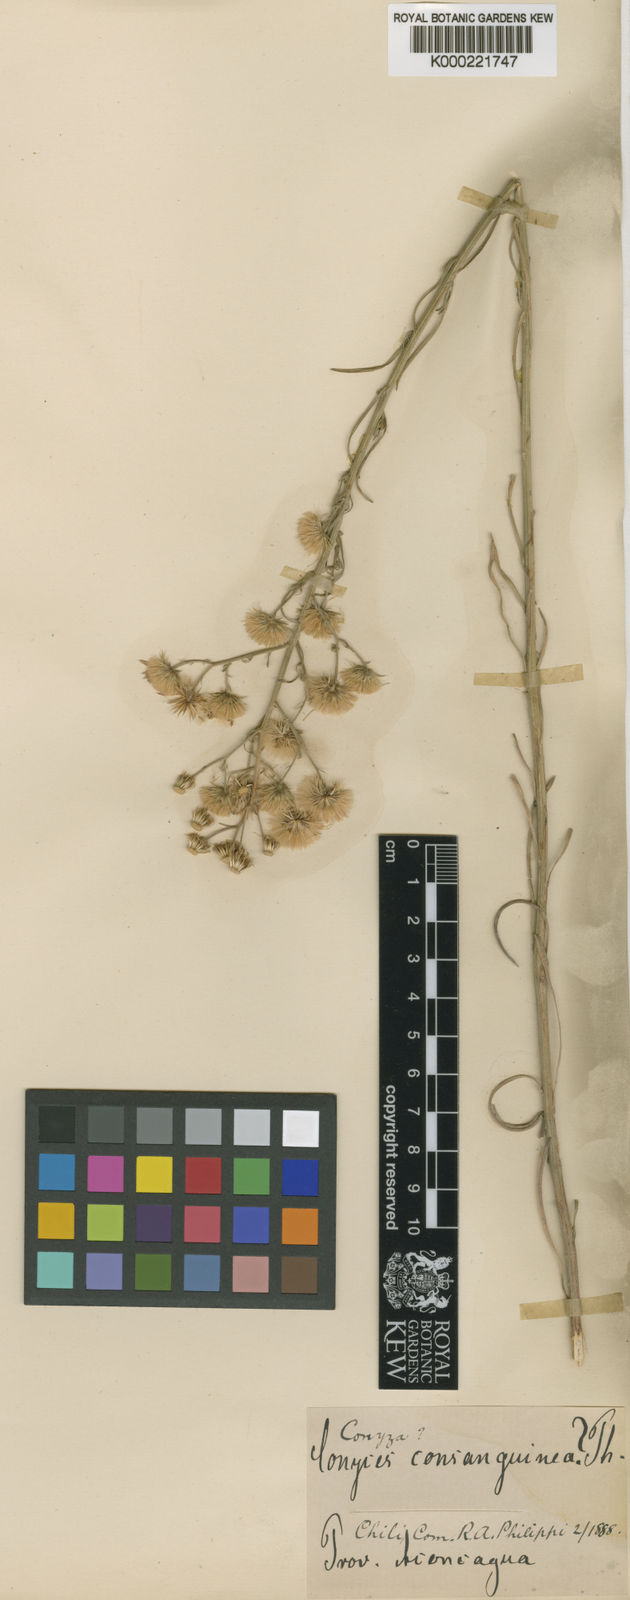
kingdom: Plantae
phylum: Tracheophyta
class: Magnoliopsida
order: Asterales
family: Asteraceae
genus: Erigeron
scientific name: Erigeron stenophyllus
